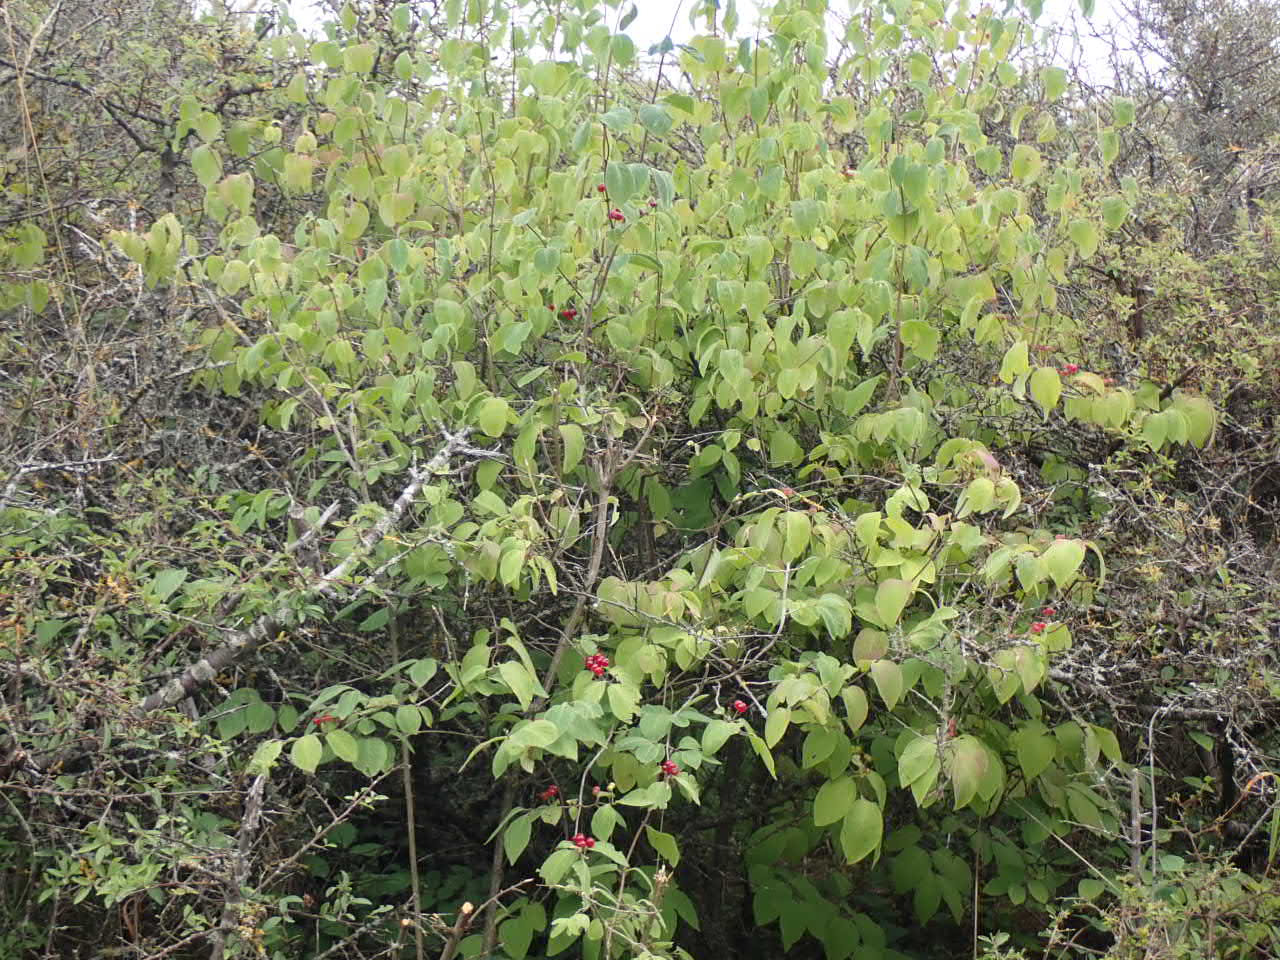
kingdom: Plantae
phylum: Tracheophyta
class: Magnoliopsida
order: Dipsacales
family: Caprifoliaceae
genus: Lonicera
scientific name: Lonicera xylosteum
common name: Dunet gedeblad
